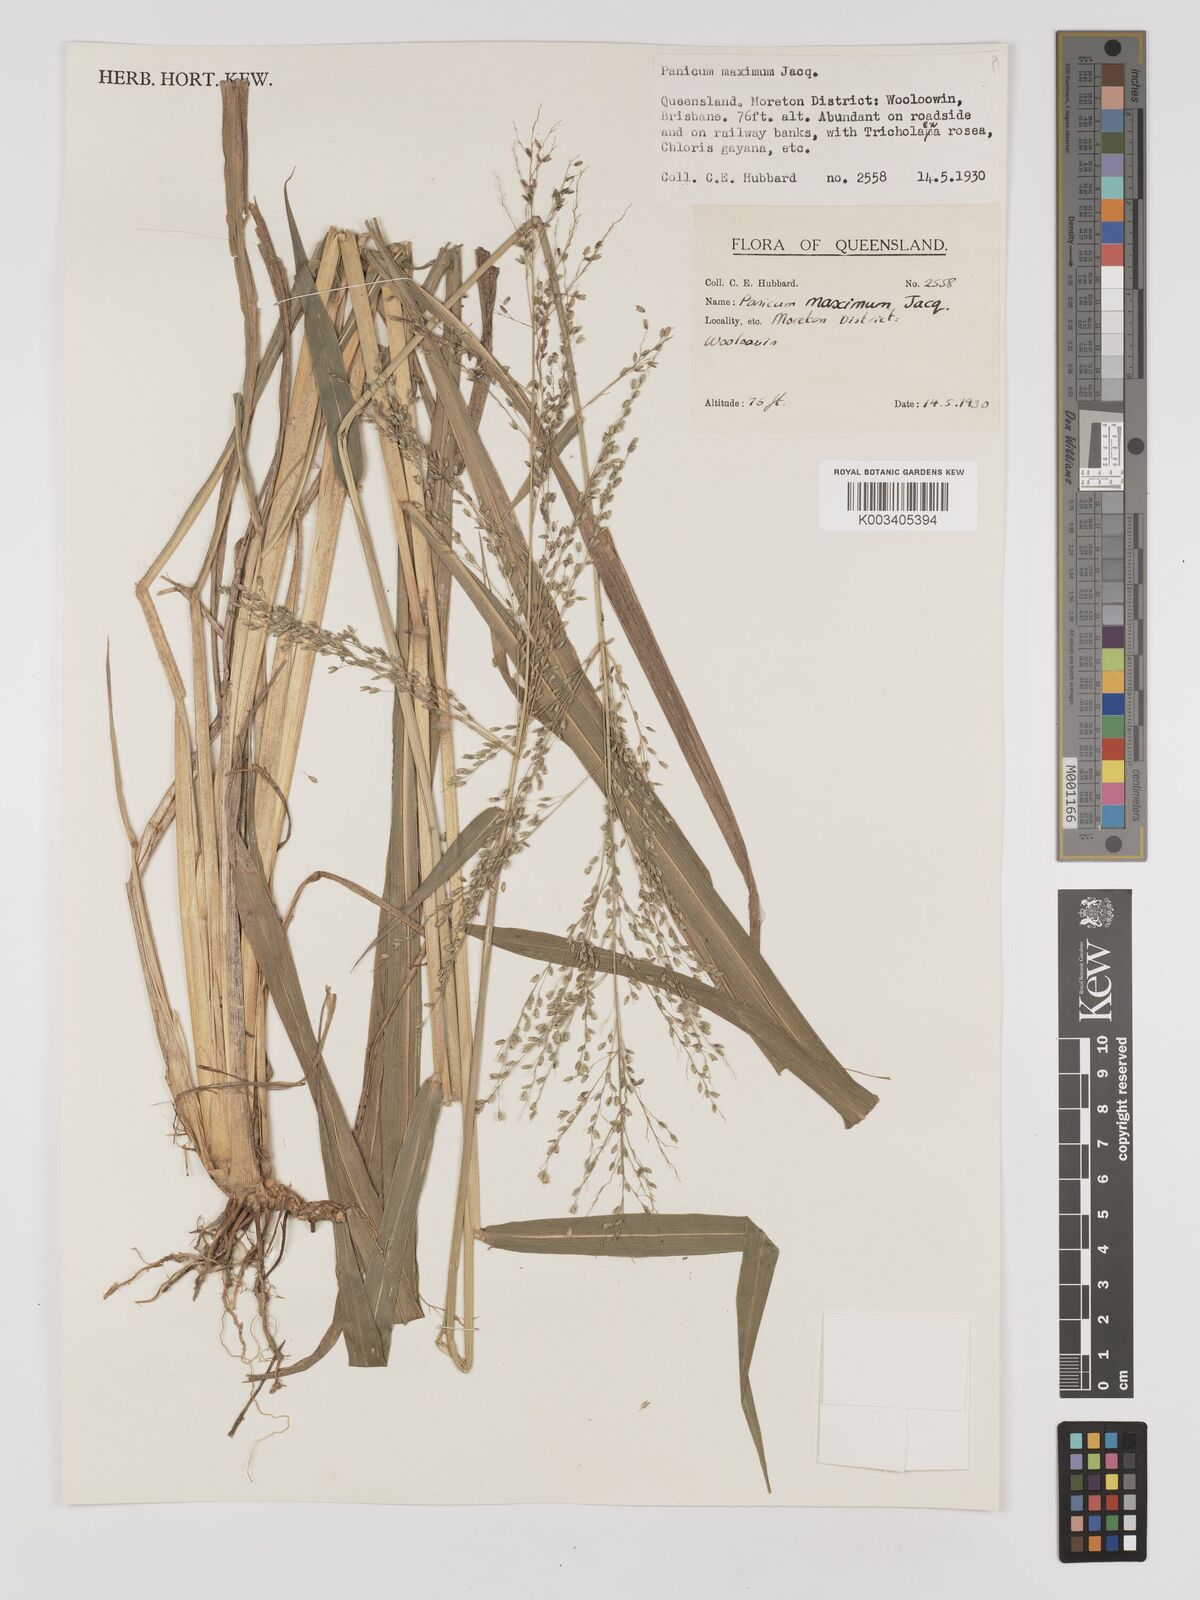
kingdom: Plantae
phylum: Tracheophyta
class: Liliopsida
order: Poales
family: Poaceae
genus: Megathyrsus
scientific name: Megathyrsus maximus
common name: Guineagrass
